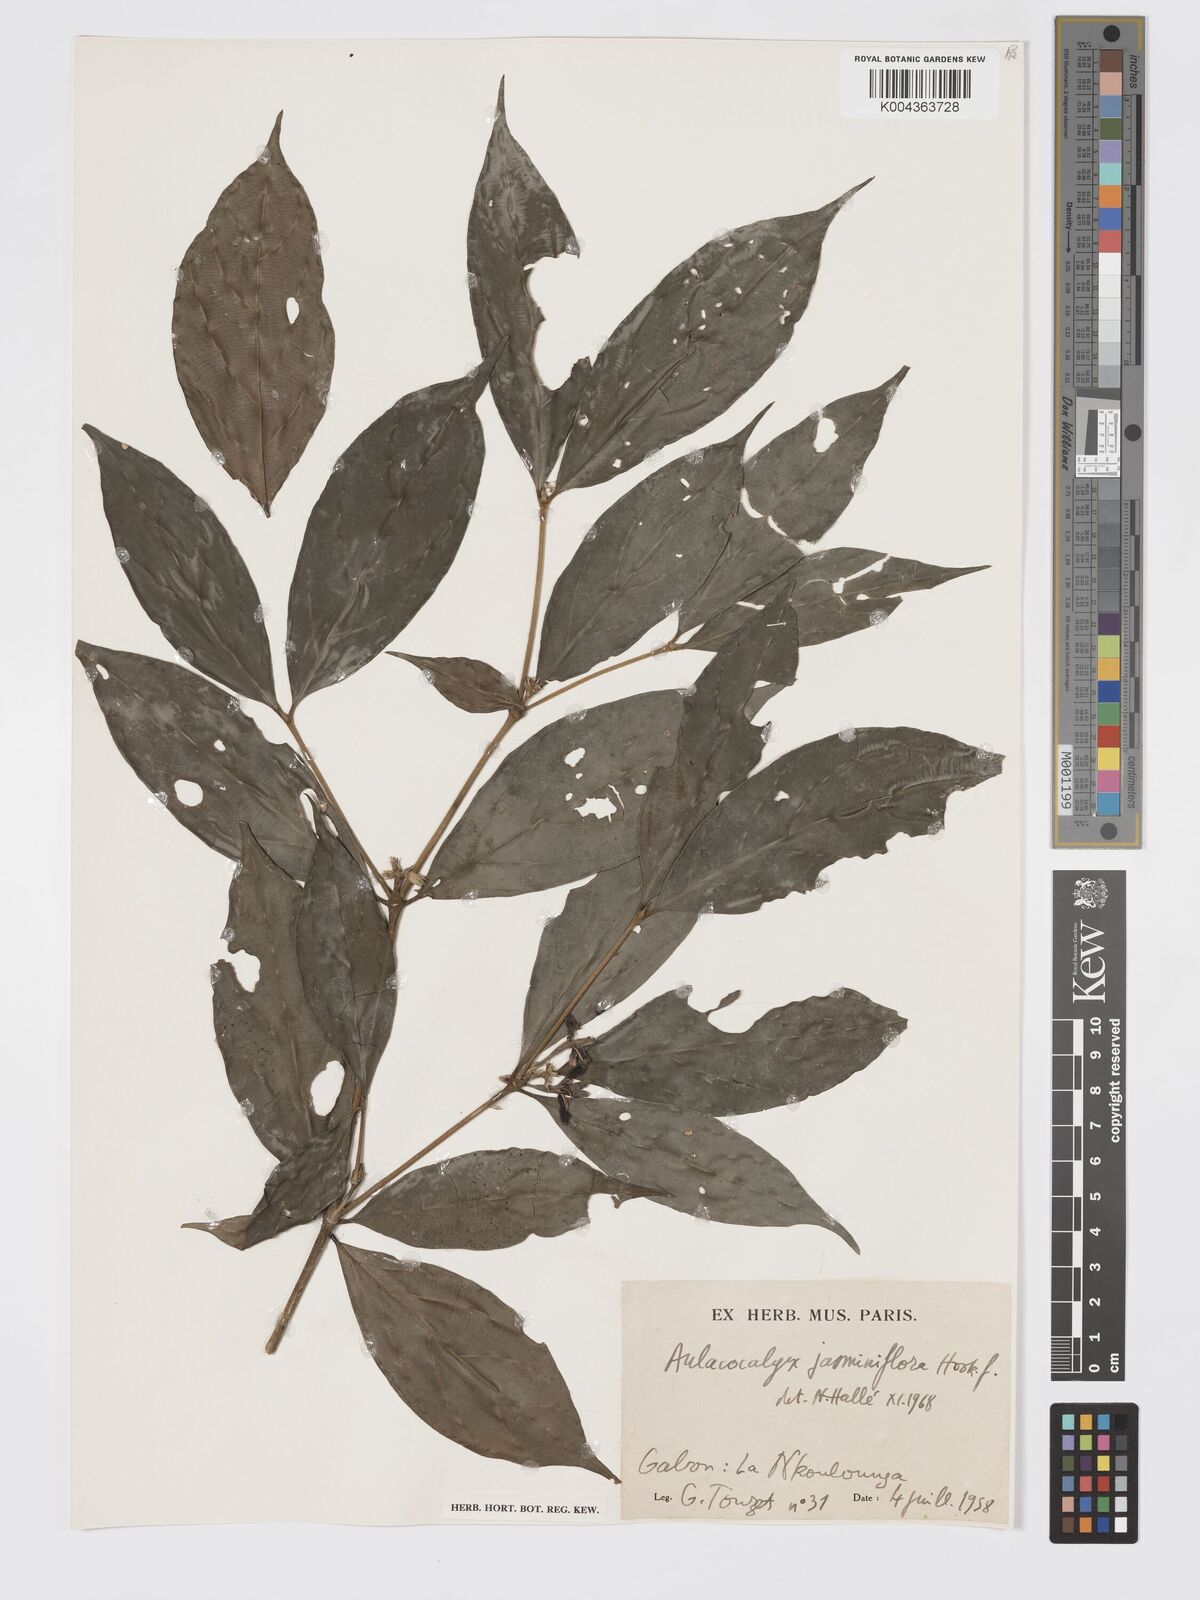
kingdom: Plantae
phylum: Tracheophyta
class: Magnoliopsida
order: Gentianales
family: Rubiaceae
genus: Aulacocalyx
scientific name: Aulacocalyx jasminiflora
